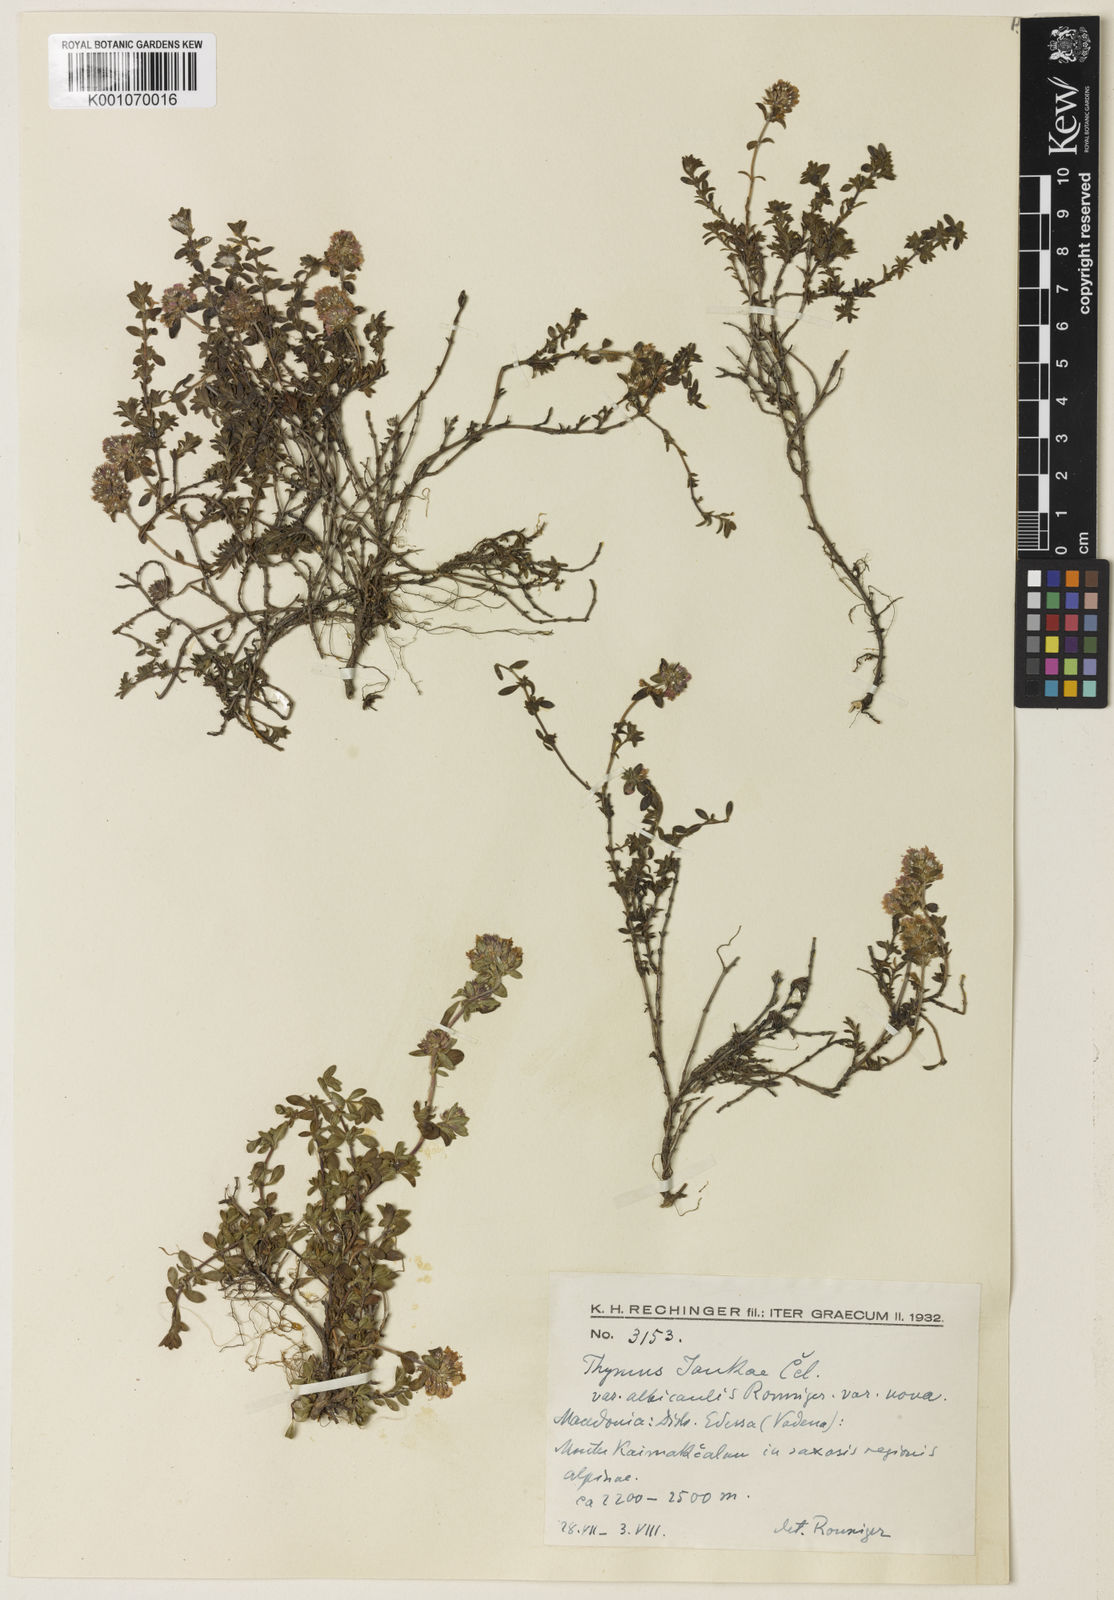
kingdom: Plantae
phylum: Tracheophyta
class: Magnoliopsida
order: Lamiales
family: Lamiaceae
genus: Thymus
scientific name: Thymus jankae
